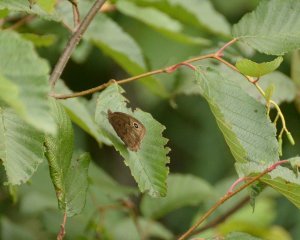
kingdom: Animalia
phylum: Arthropoda
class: Insecta
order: Lepidoptera
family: Nymphalidae
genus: Cercyonis
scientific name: Cercyonis pegala
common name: Common Wood-Nymph
